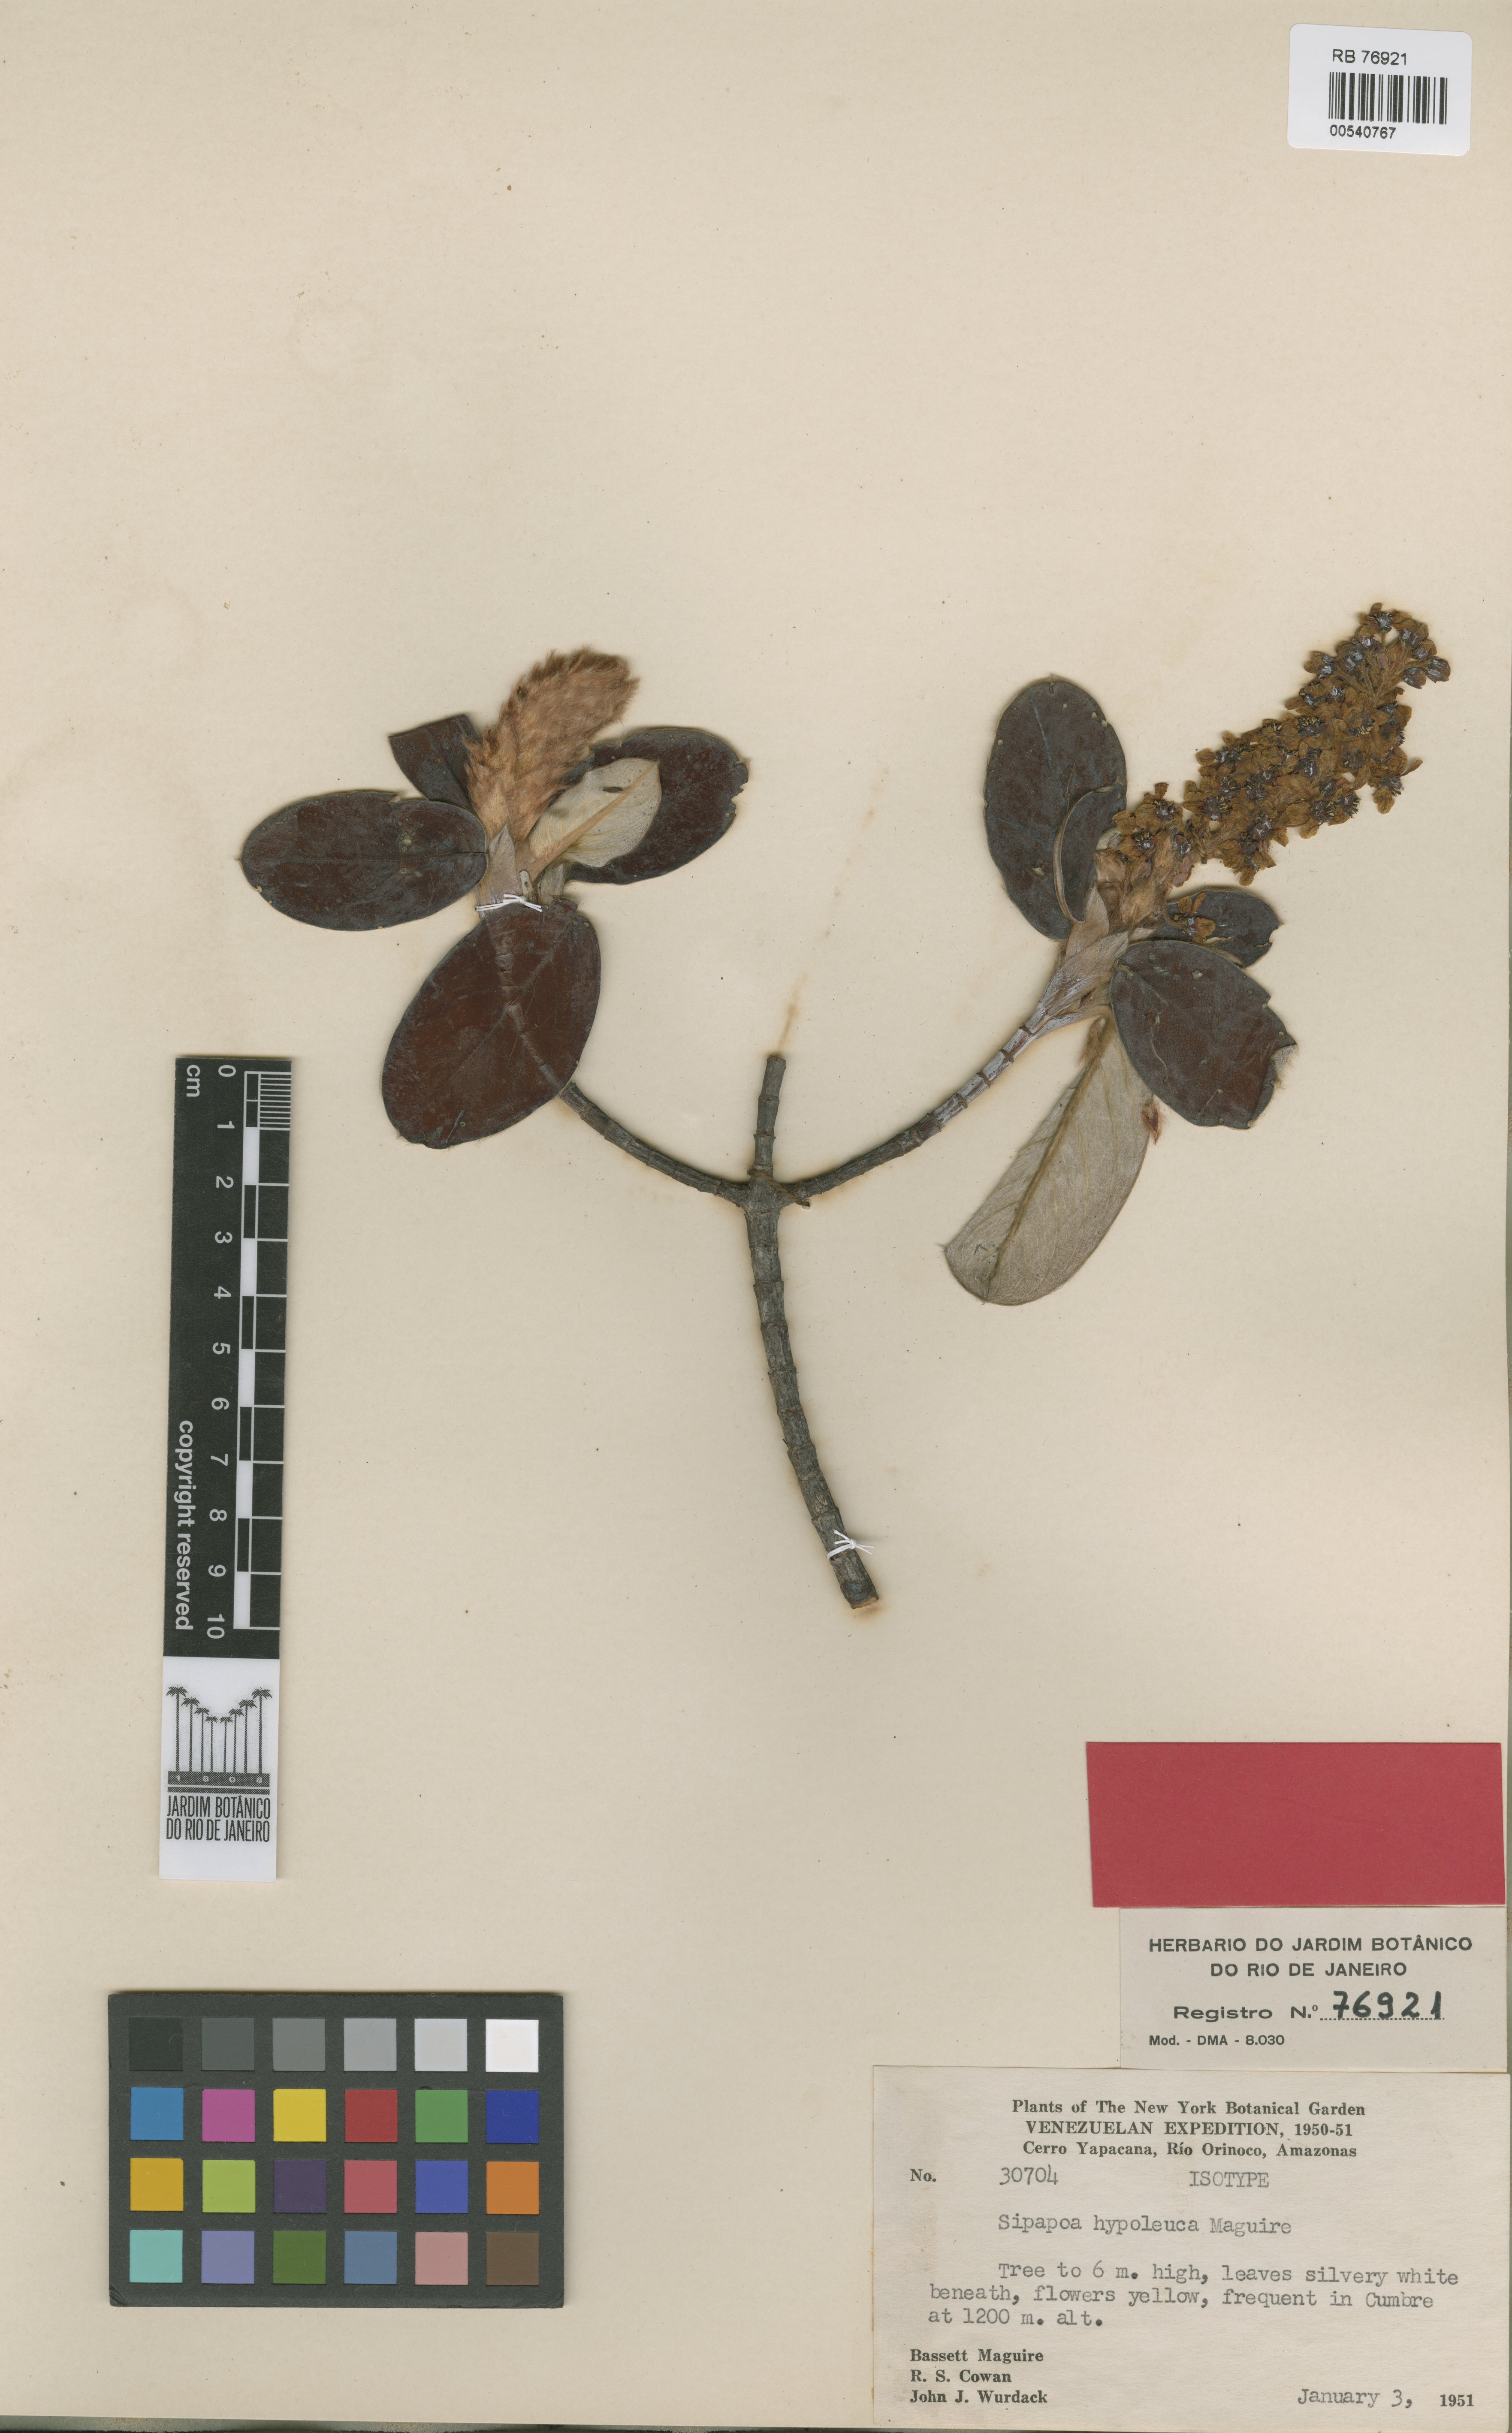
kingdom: Plantae
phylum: Tracheophyta
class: Magnoliopsida
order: Malpighiales
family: Malpighiaceae
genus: Diacidia
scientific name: Diacidia hypoleuca
